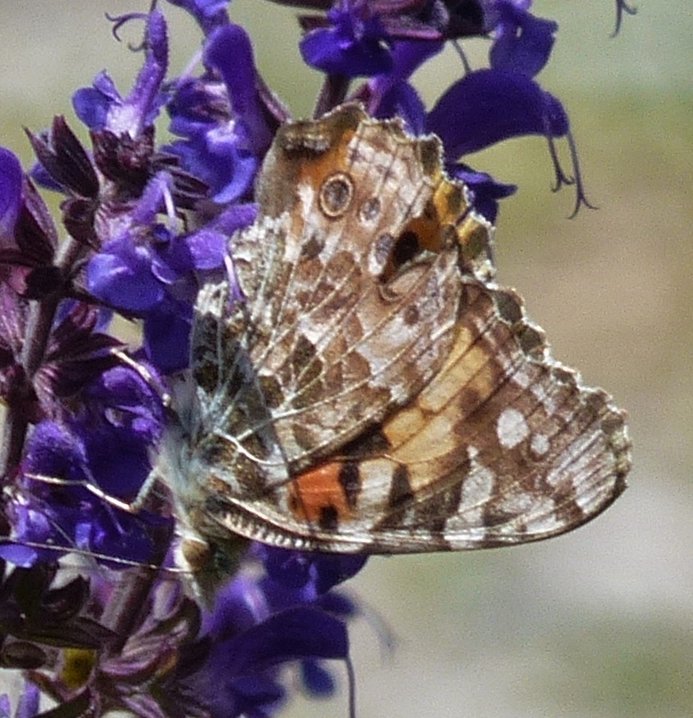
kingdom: Animalia
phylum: Arthropoda
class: Insecta
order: Lepidoptera
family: Nymphalidae
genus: Vanessa
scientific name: Vanessa cardui
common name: Painted Lady
